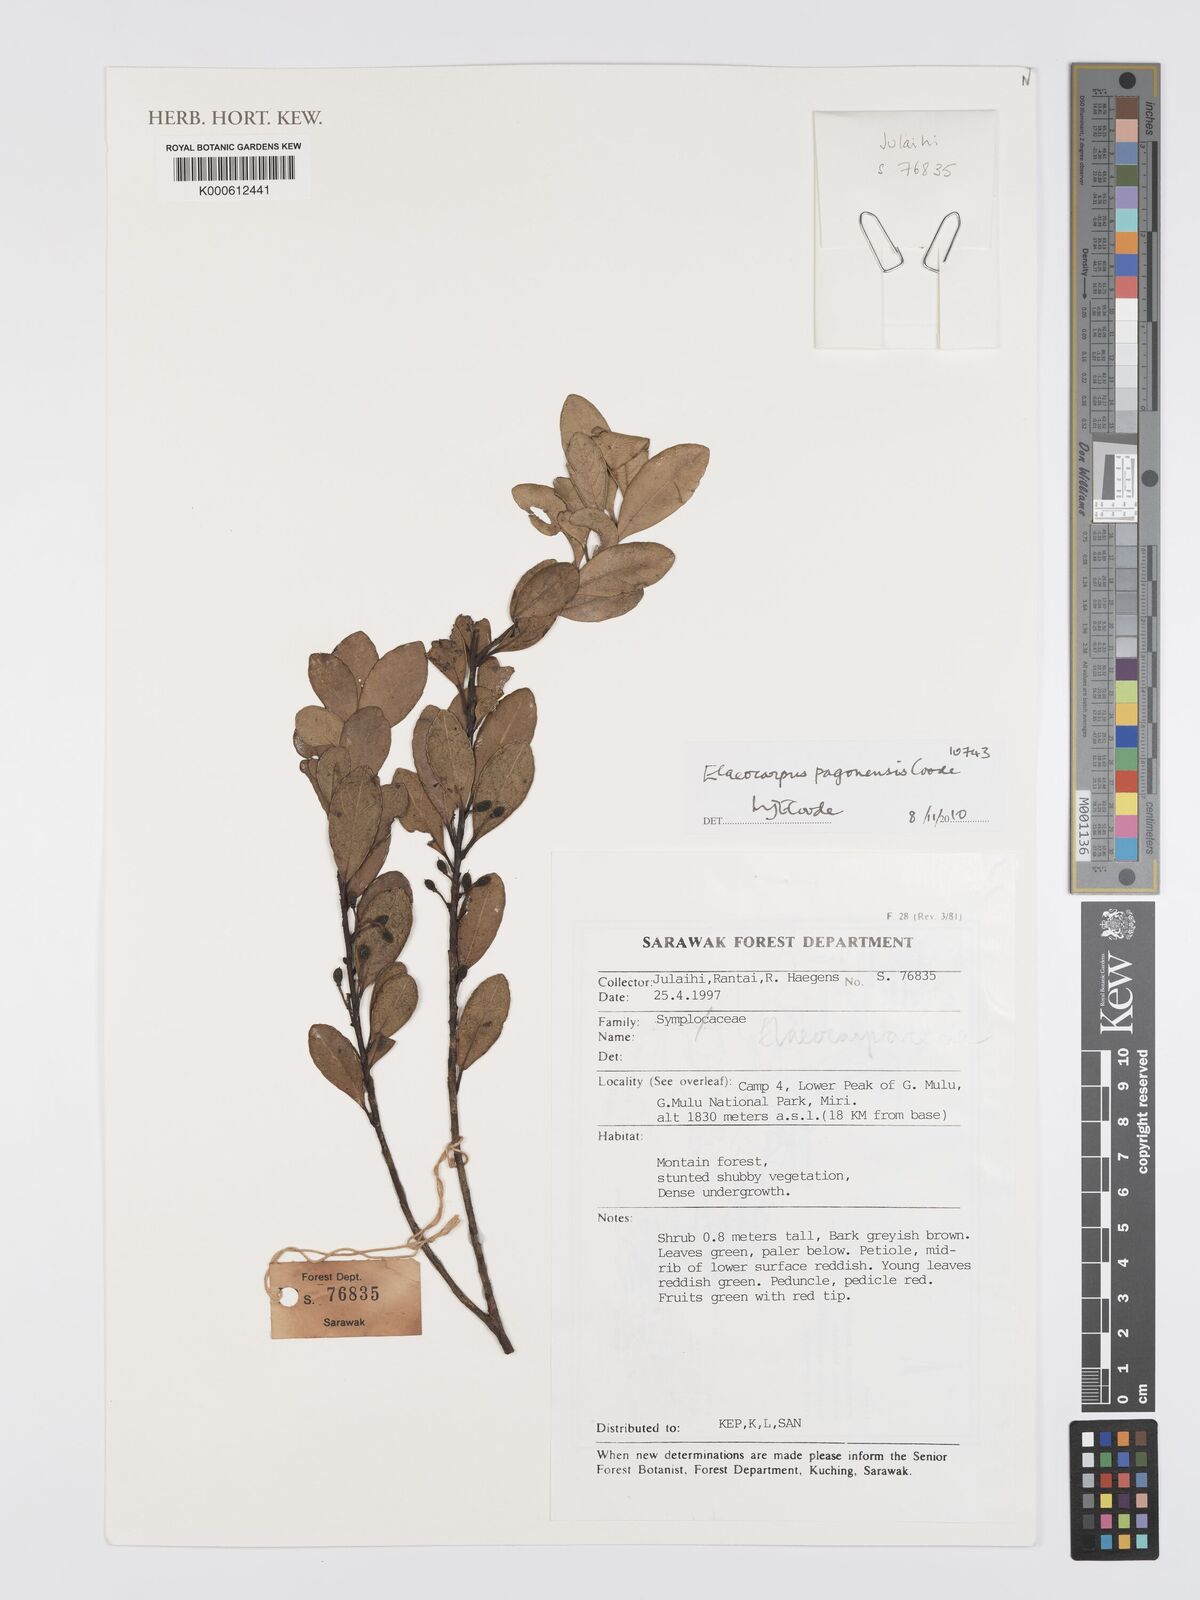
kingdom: Plantae
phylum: Tracheophyta
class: Magnoliopsida
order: Oxalidales
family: Elaeocarpaceae
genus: Elaeocarpus
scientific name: Elaeocarpus pagonensis
